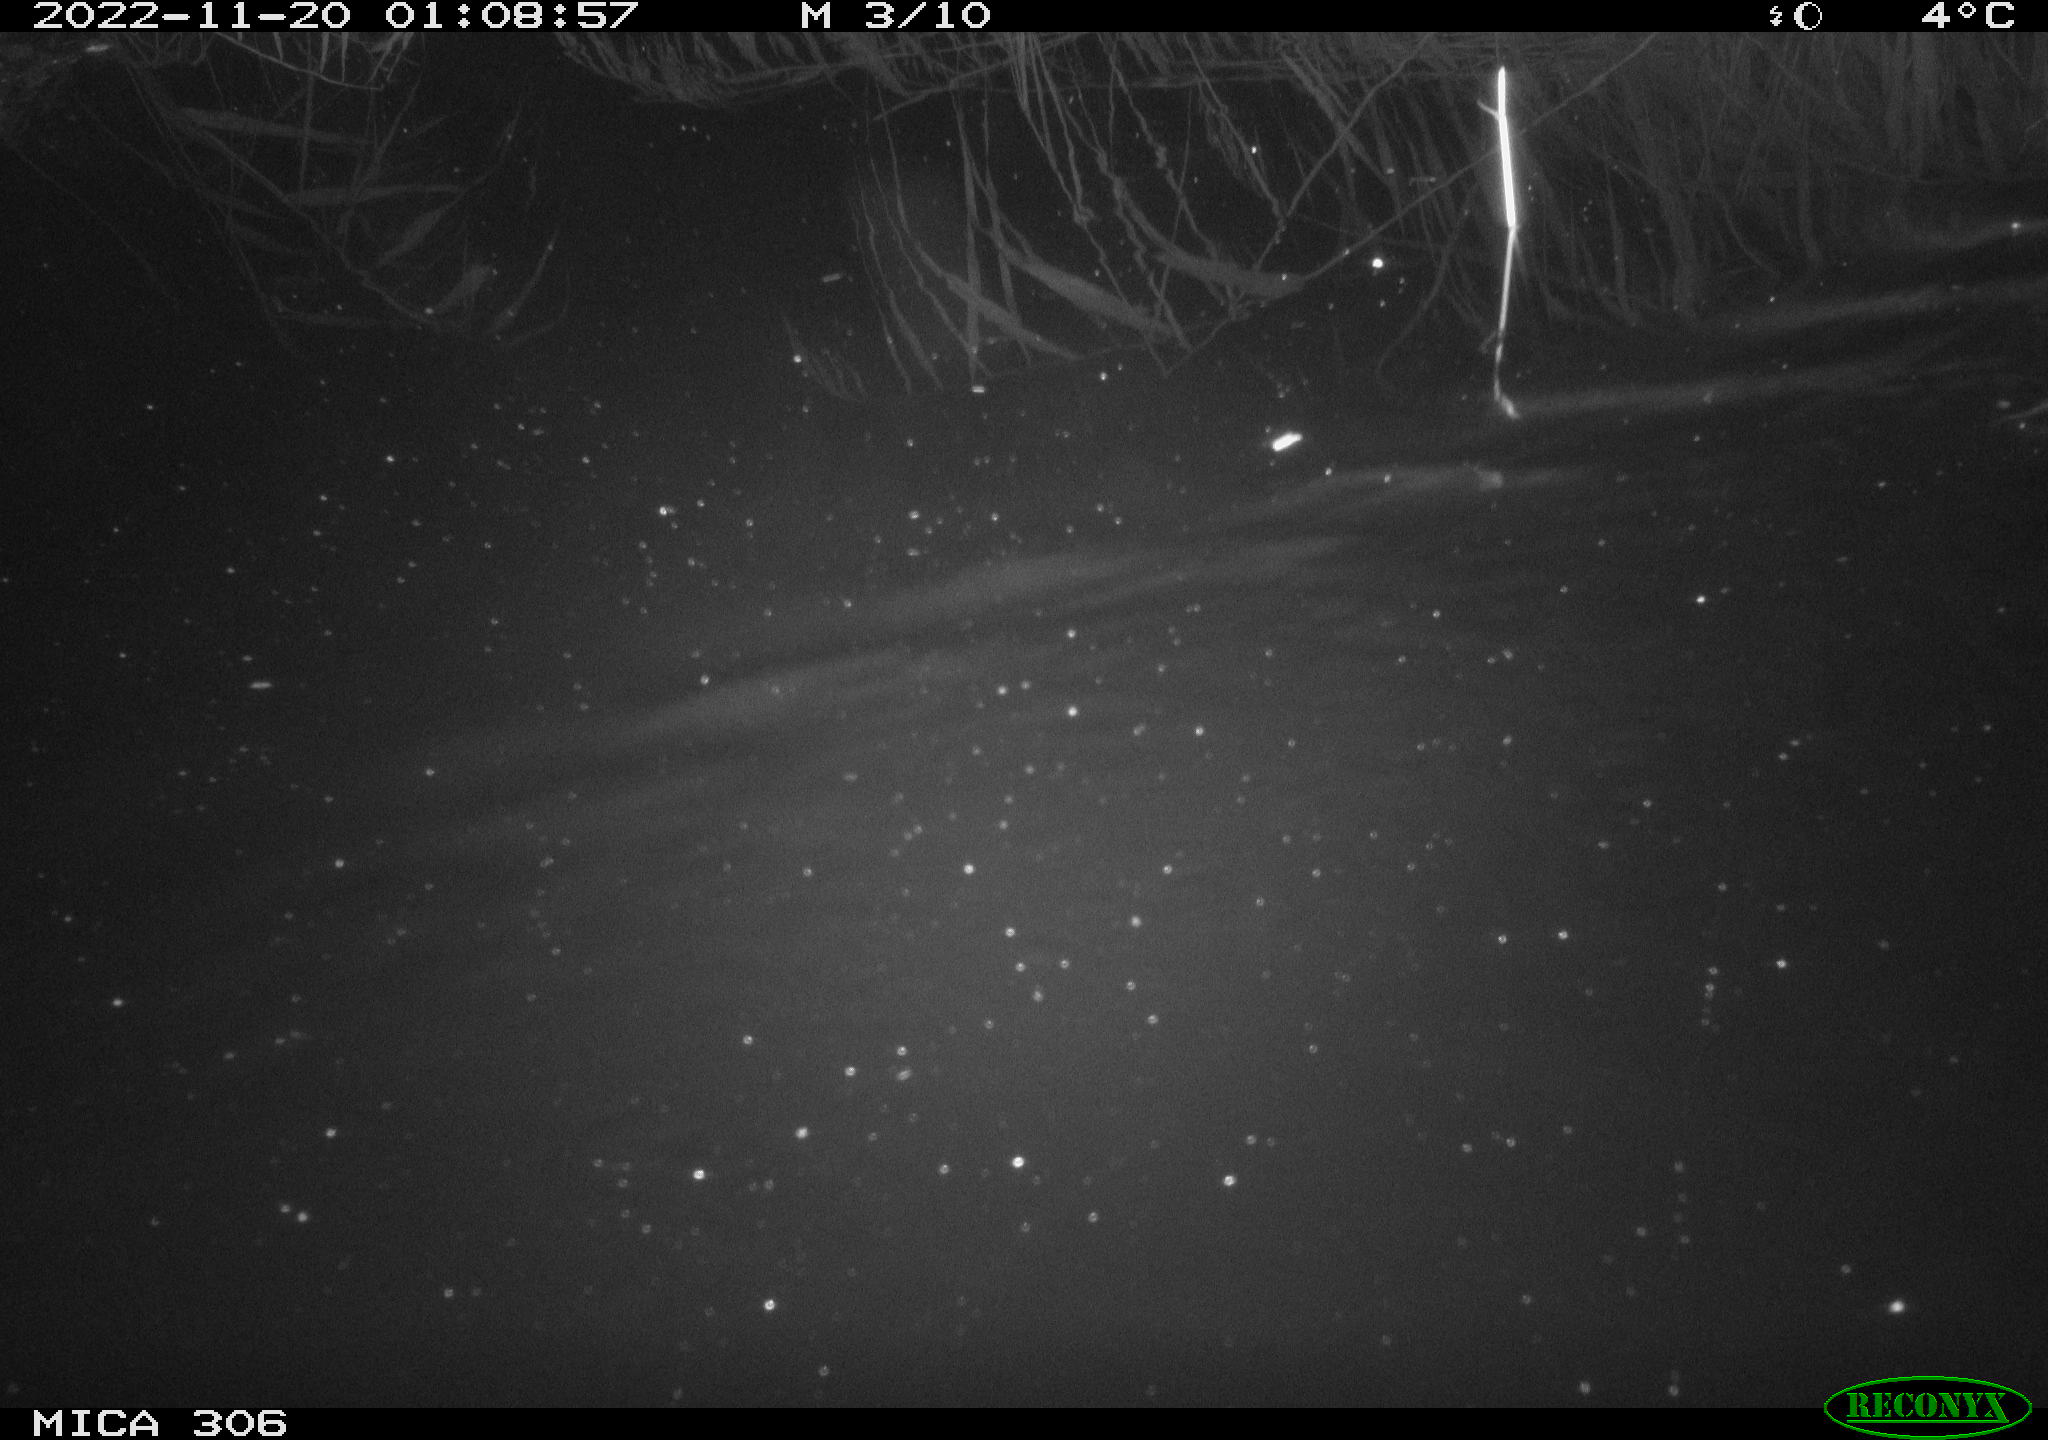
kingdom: Animalia
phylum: Chordata
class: Mammalia
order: Rodentia
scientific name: Rodentia
